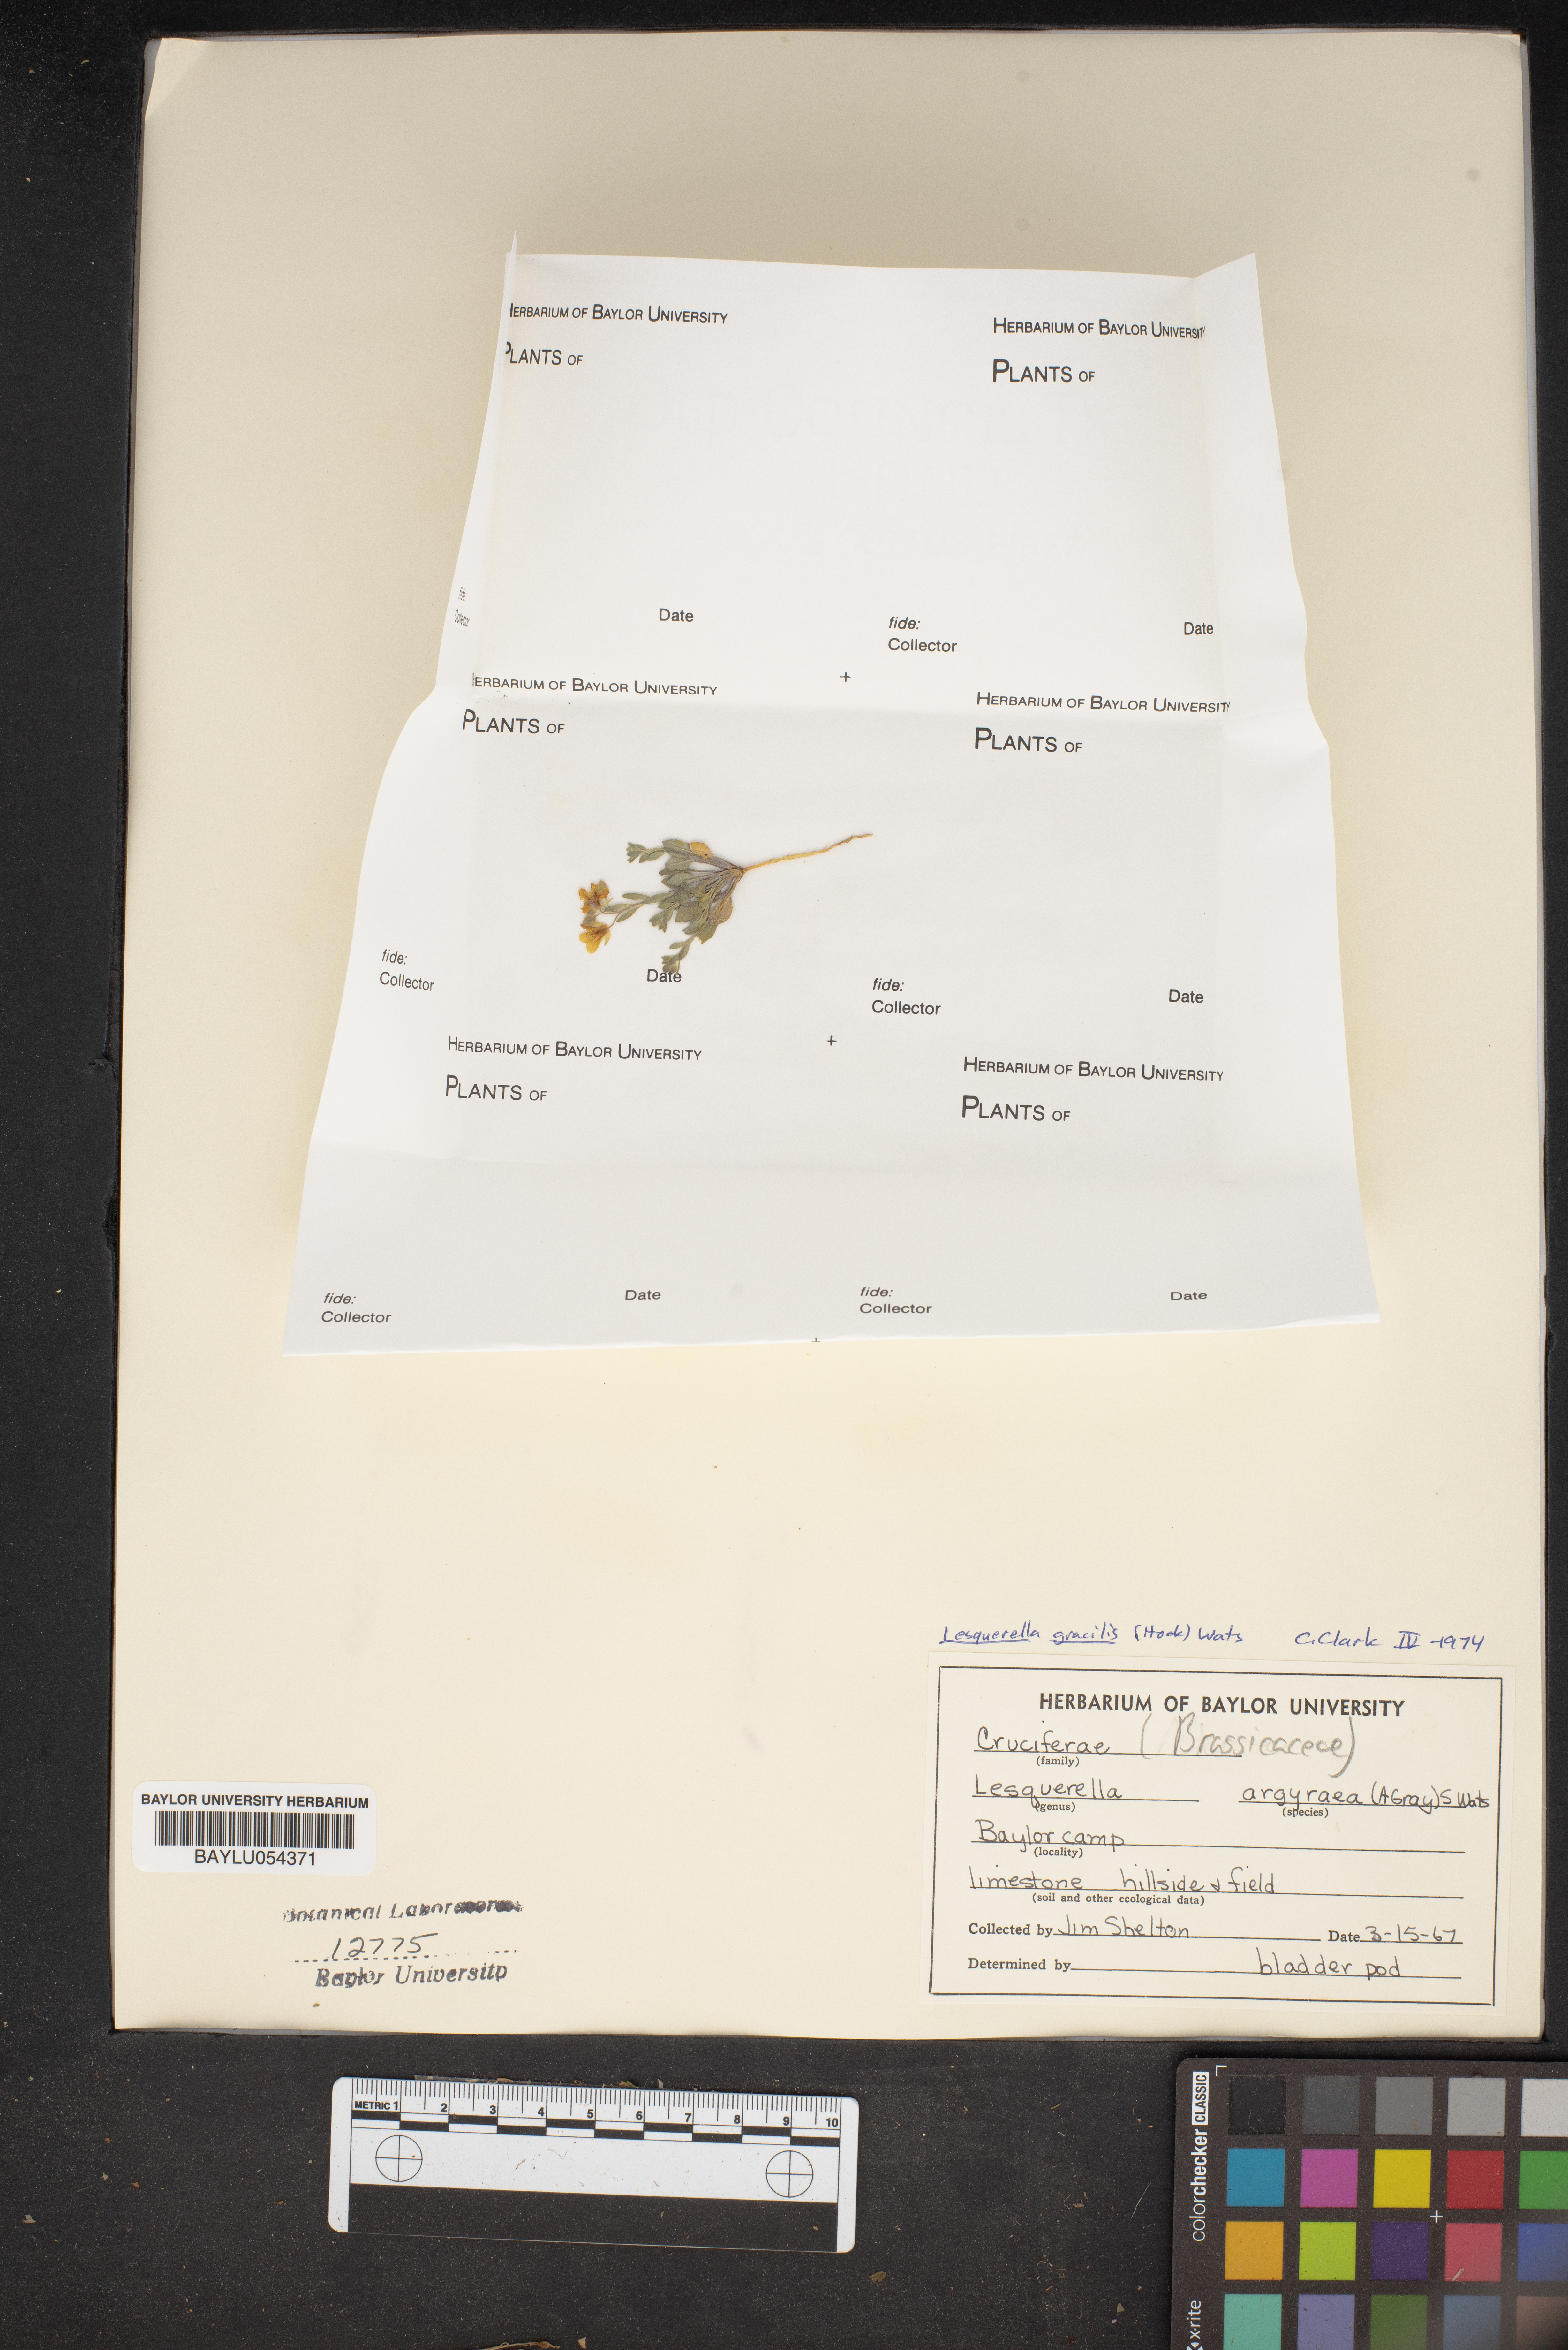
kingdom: Plantae
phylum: Tracheophyta
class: Magnoliopsida
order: Brassicales
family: Brassicaceae
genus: Physaria
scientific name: Physaria argyraea
